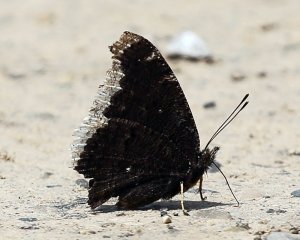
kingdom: Animalia
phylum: Arthropoda
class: Insecta
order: Lepidoptera
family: Nymphalidae
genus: Nymphalis
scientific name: Nymphalis antiopa
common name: Mourning Cloak
